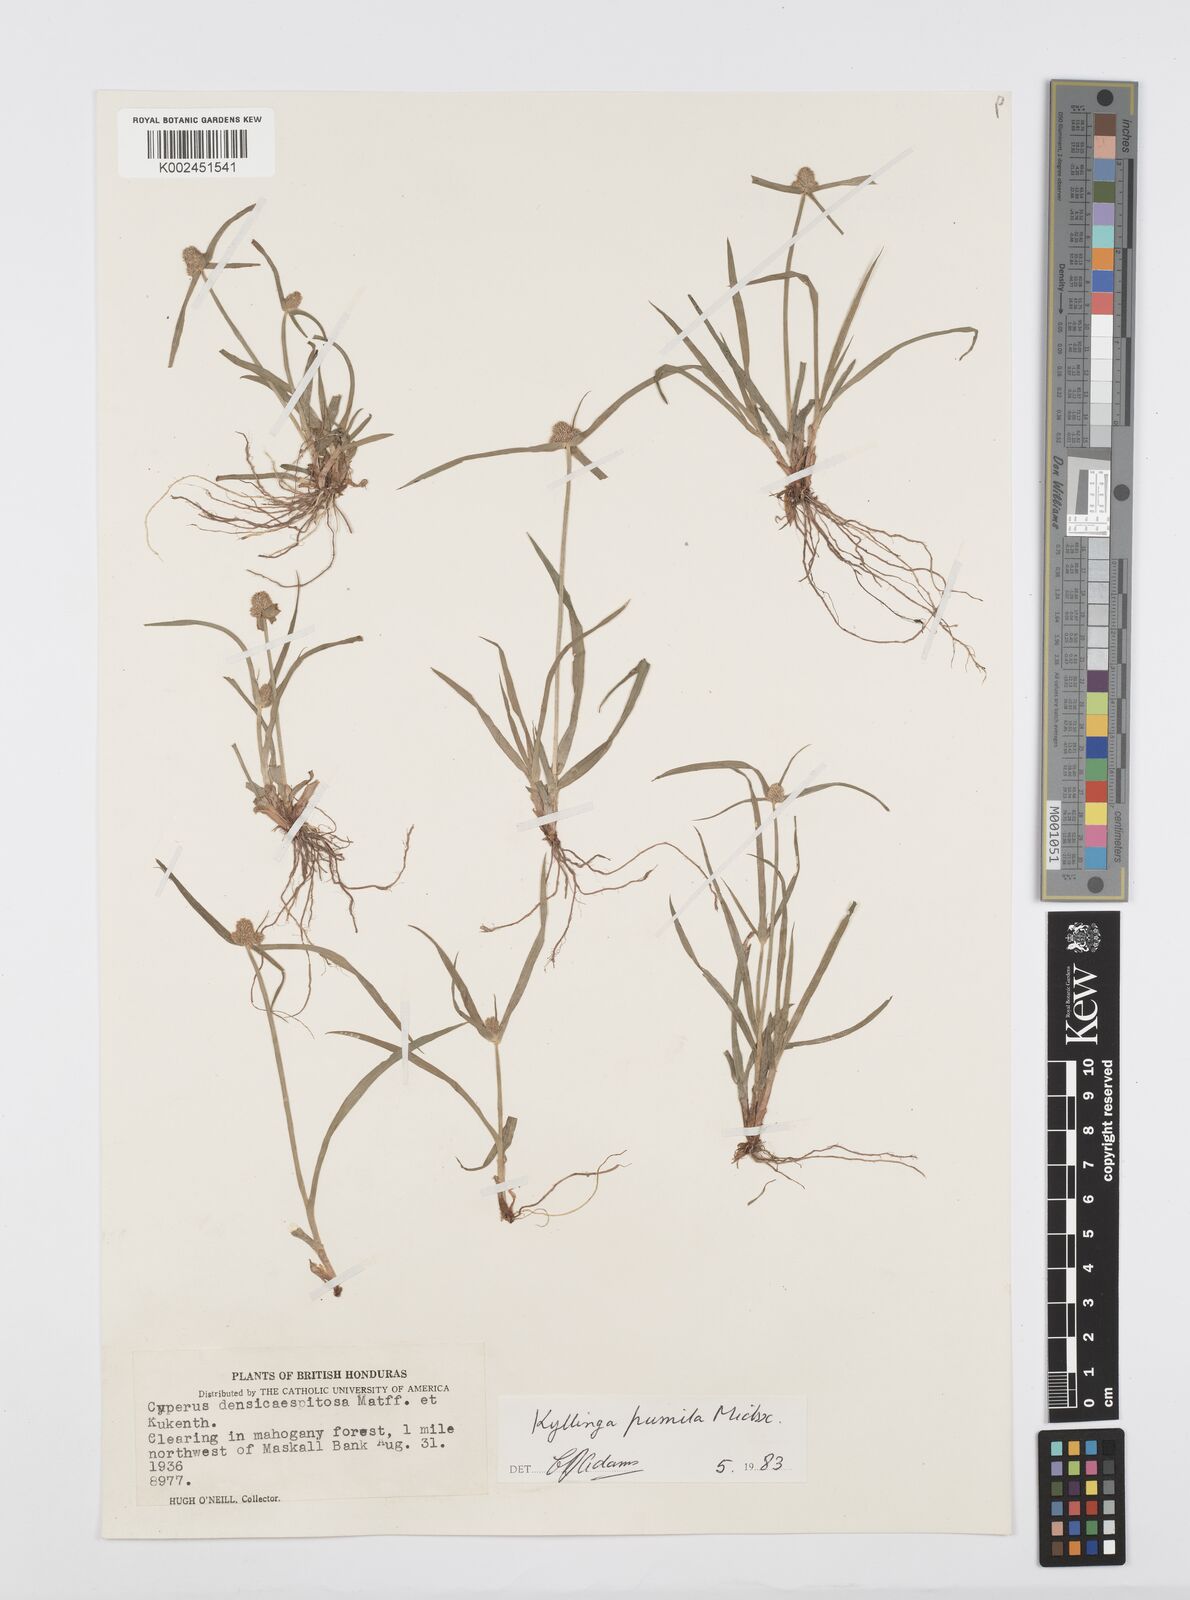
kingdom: Plantae
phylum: Tracheophyta
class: Liliopsida
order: Poales
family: Cyperaceae
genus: Cyperus
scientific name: Cyperus hortensis
